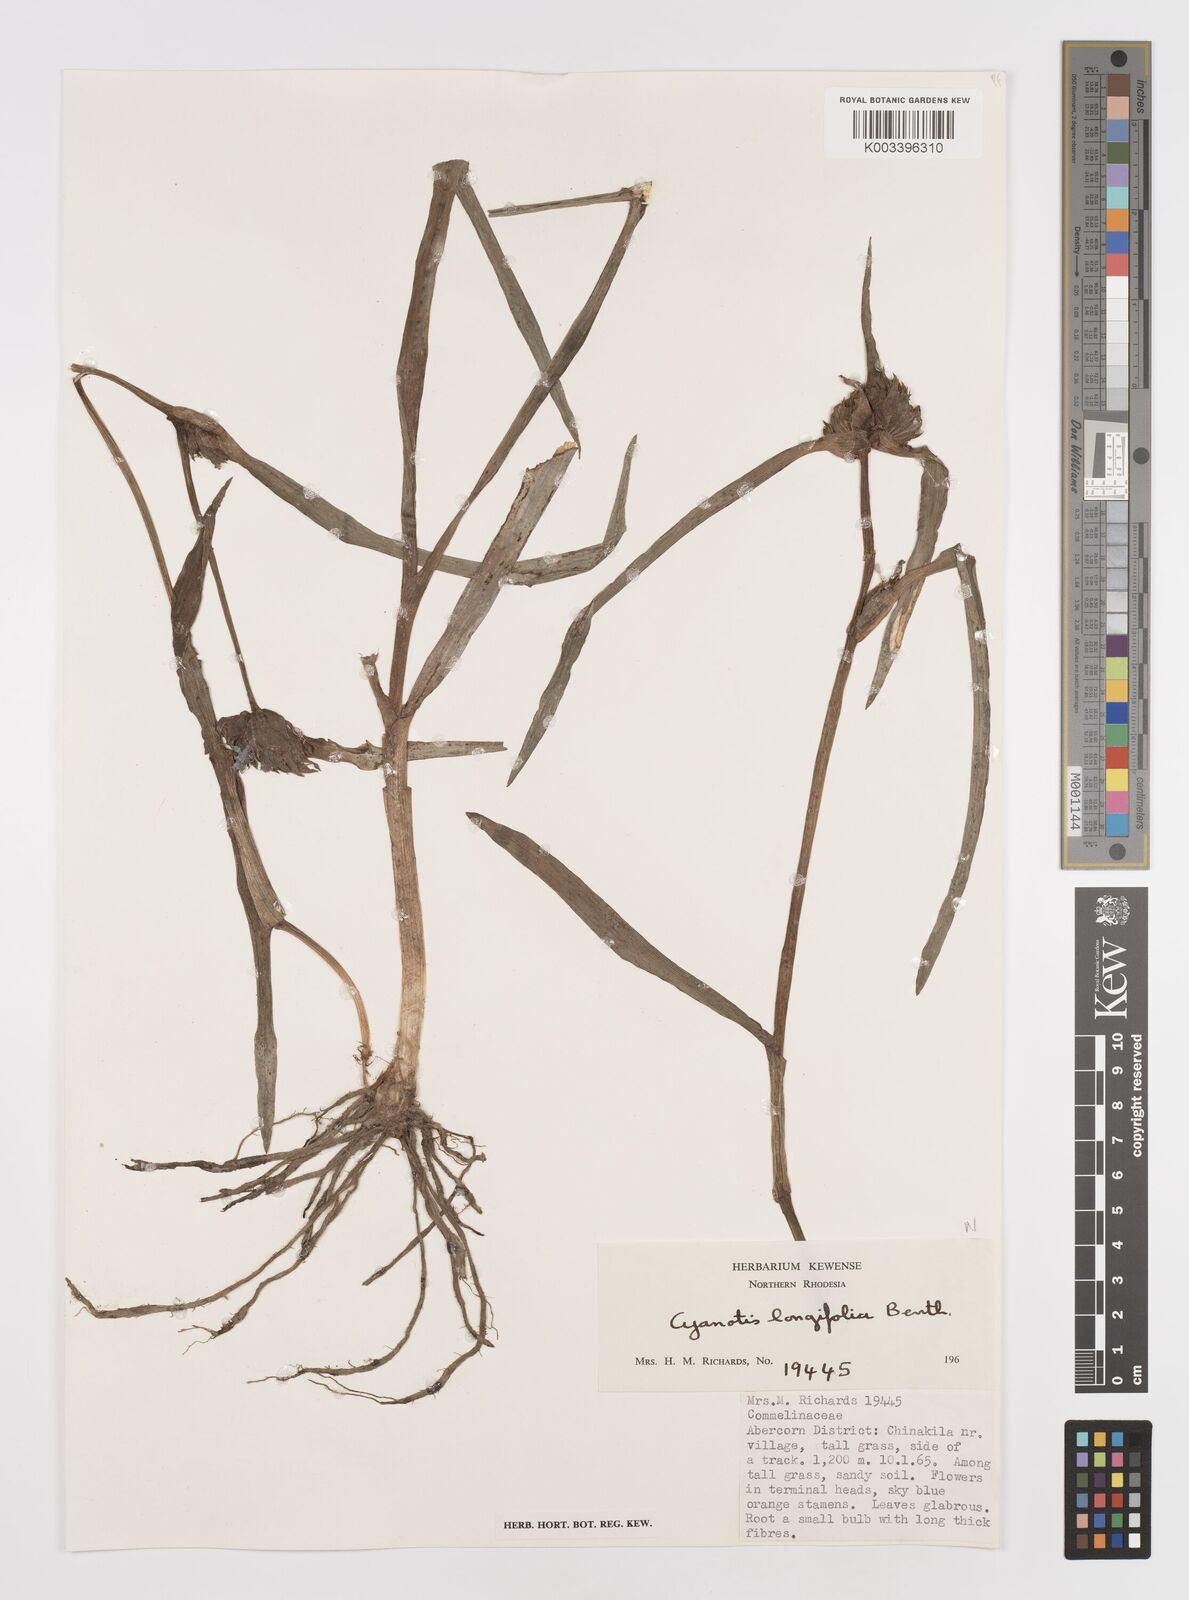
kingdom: Plantae
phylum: Tracheophyta
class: Liliopsida
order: Commelinales
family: Commelinaceae
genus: Cyanotis
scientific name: Cyanotis longifolia
